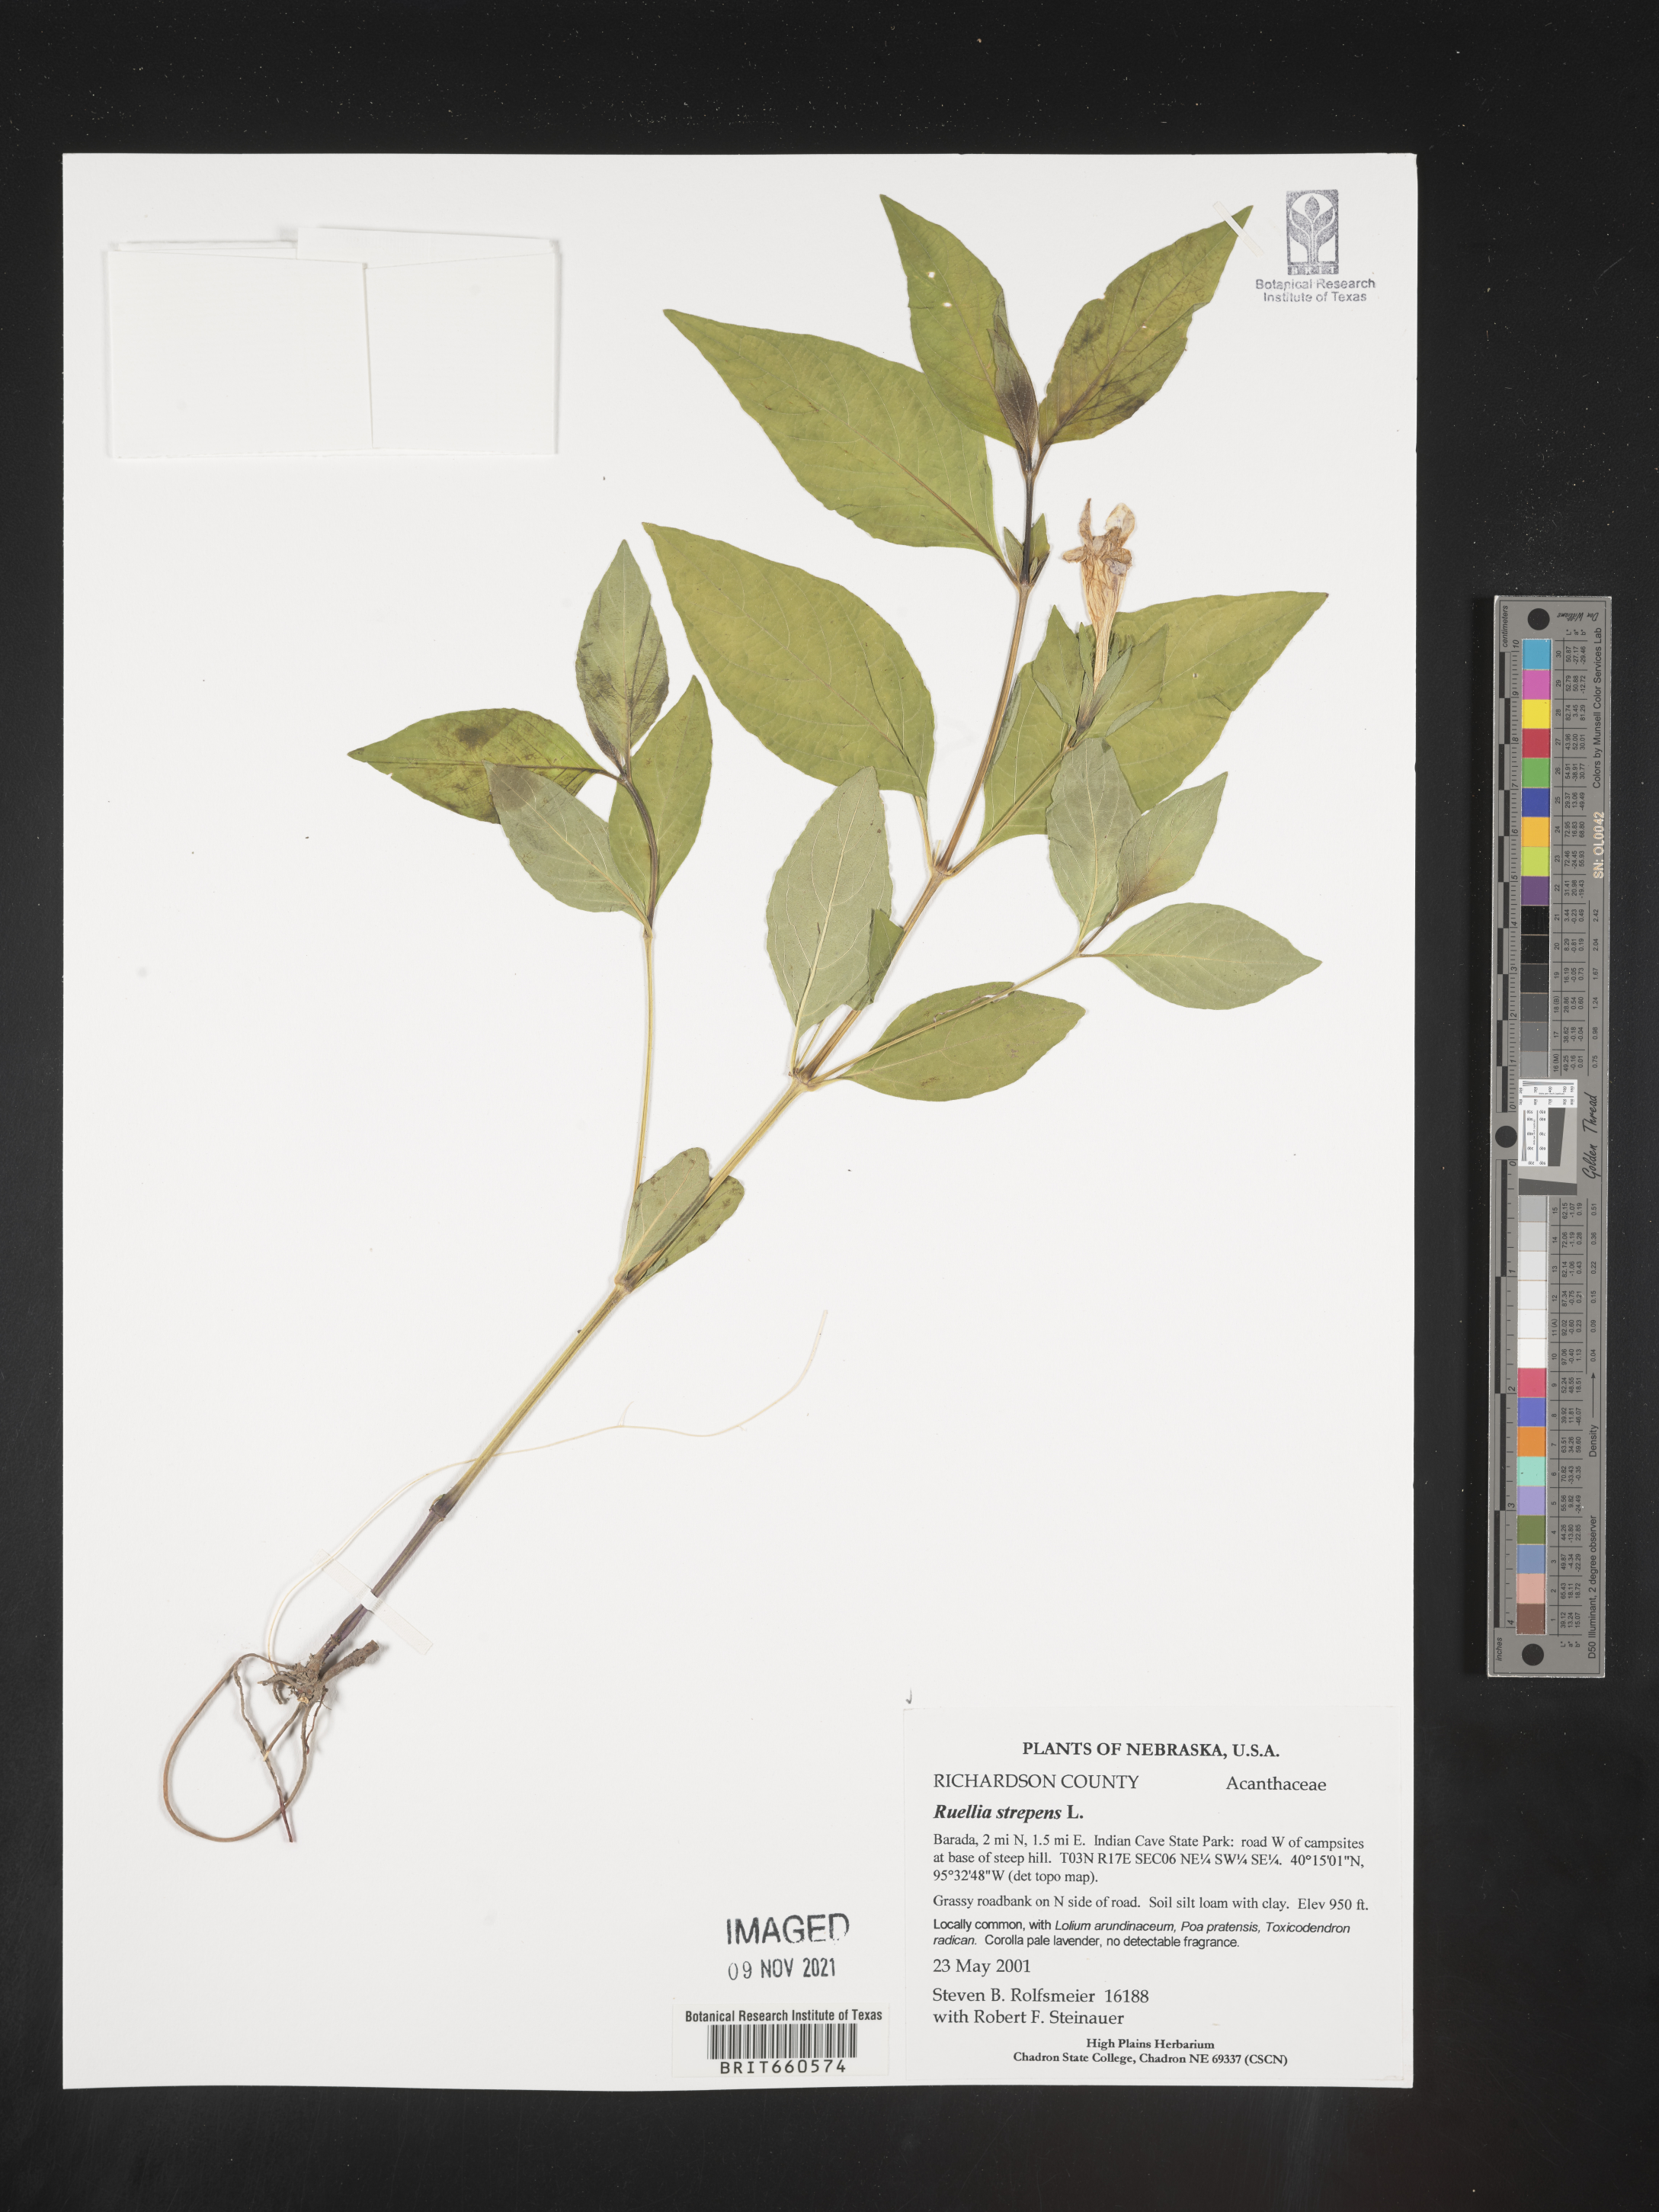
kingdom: Plantae
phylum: Tracheophyta
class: Magnoliopsida
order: Lamiales
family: Acanthaceae
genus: Ruellia
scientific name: Ruellia strepens
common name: Limestone wild petunia
